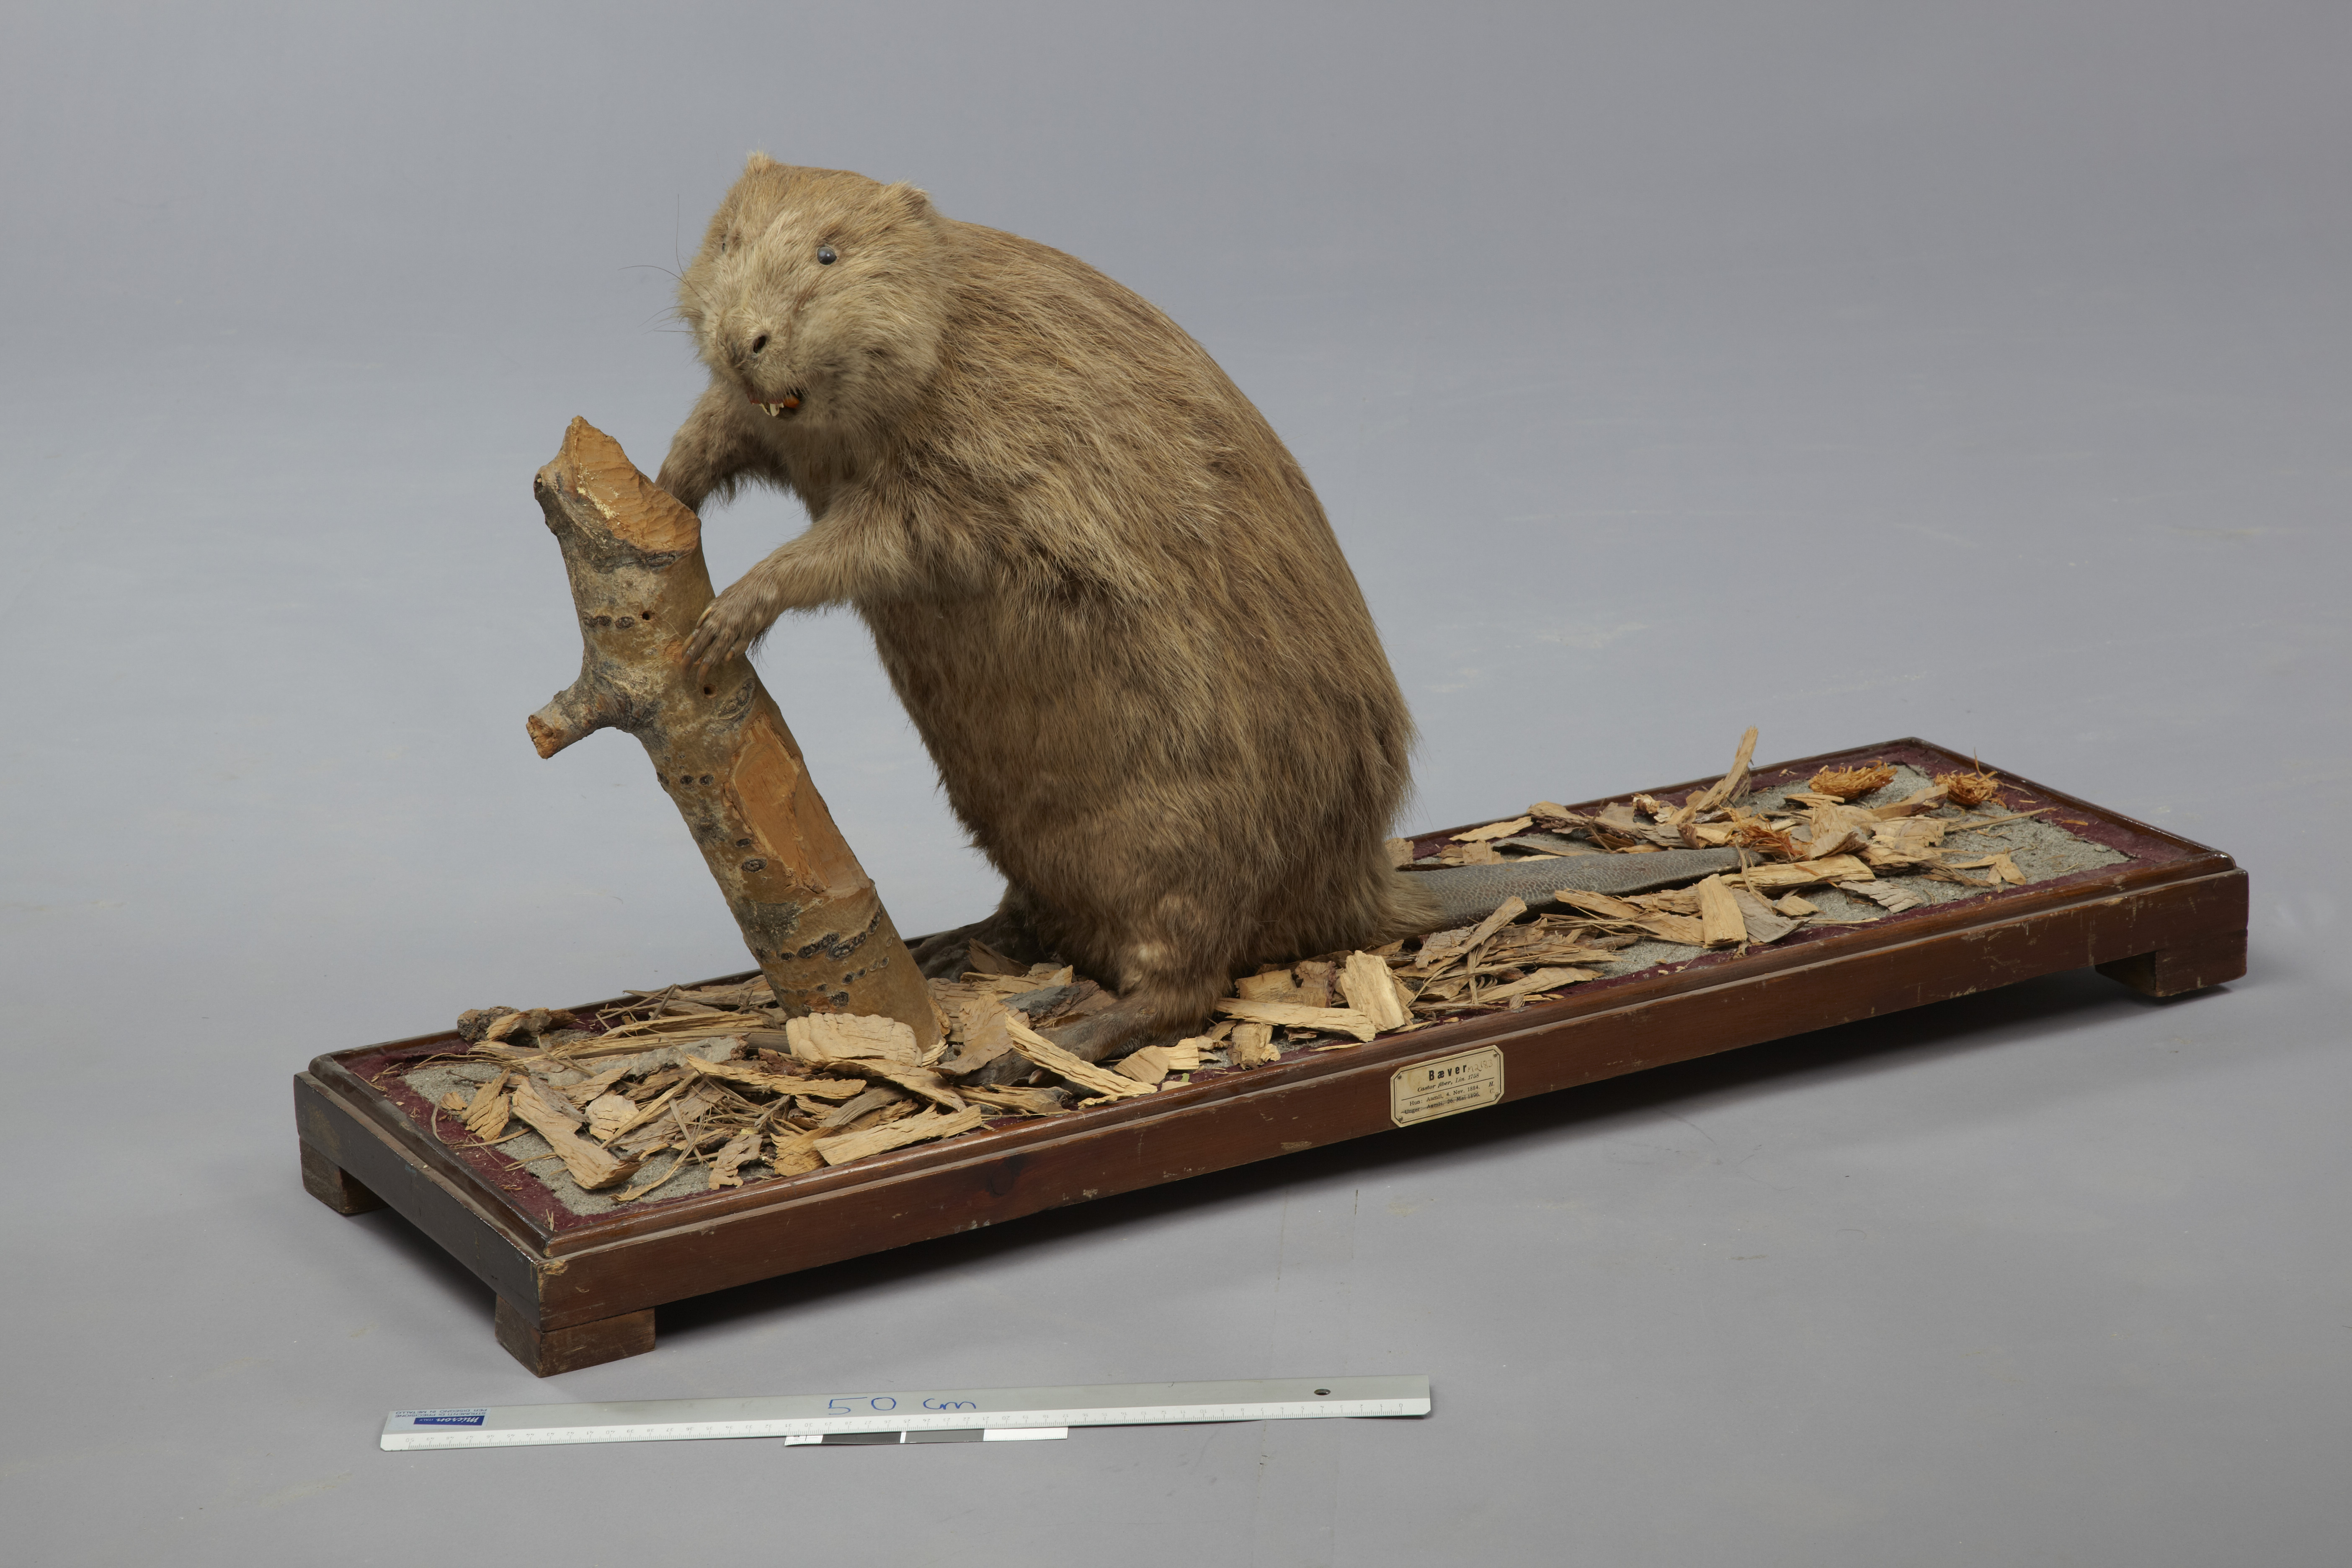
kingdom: Animalia
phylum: Chordata
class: Mammalia
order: Rodentia
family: Castoridae
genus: Castor
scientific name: Castor fiber
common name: Eurasian beaver
